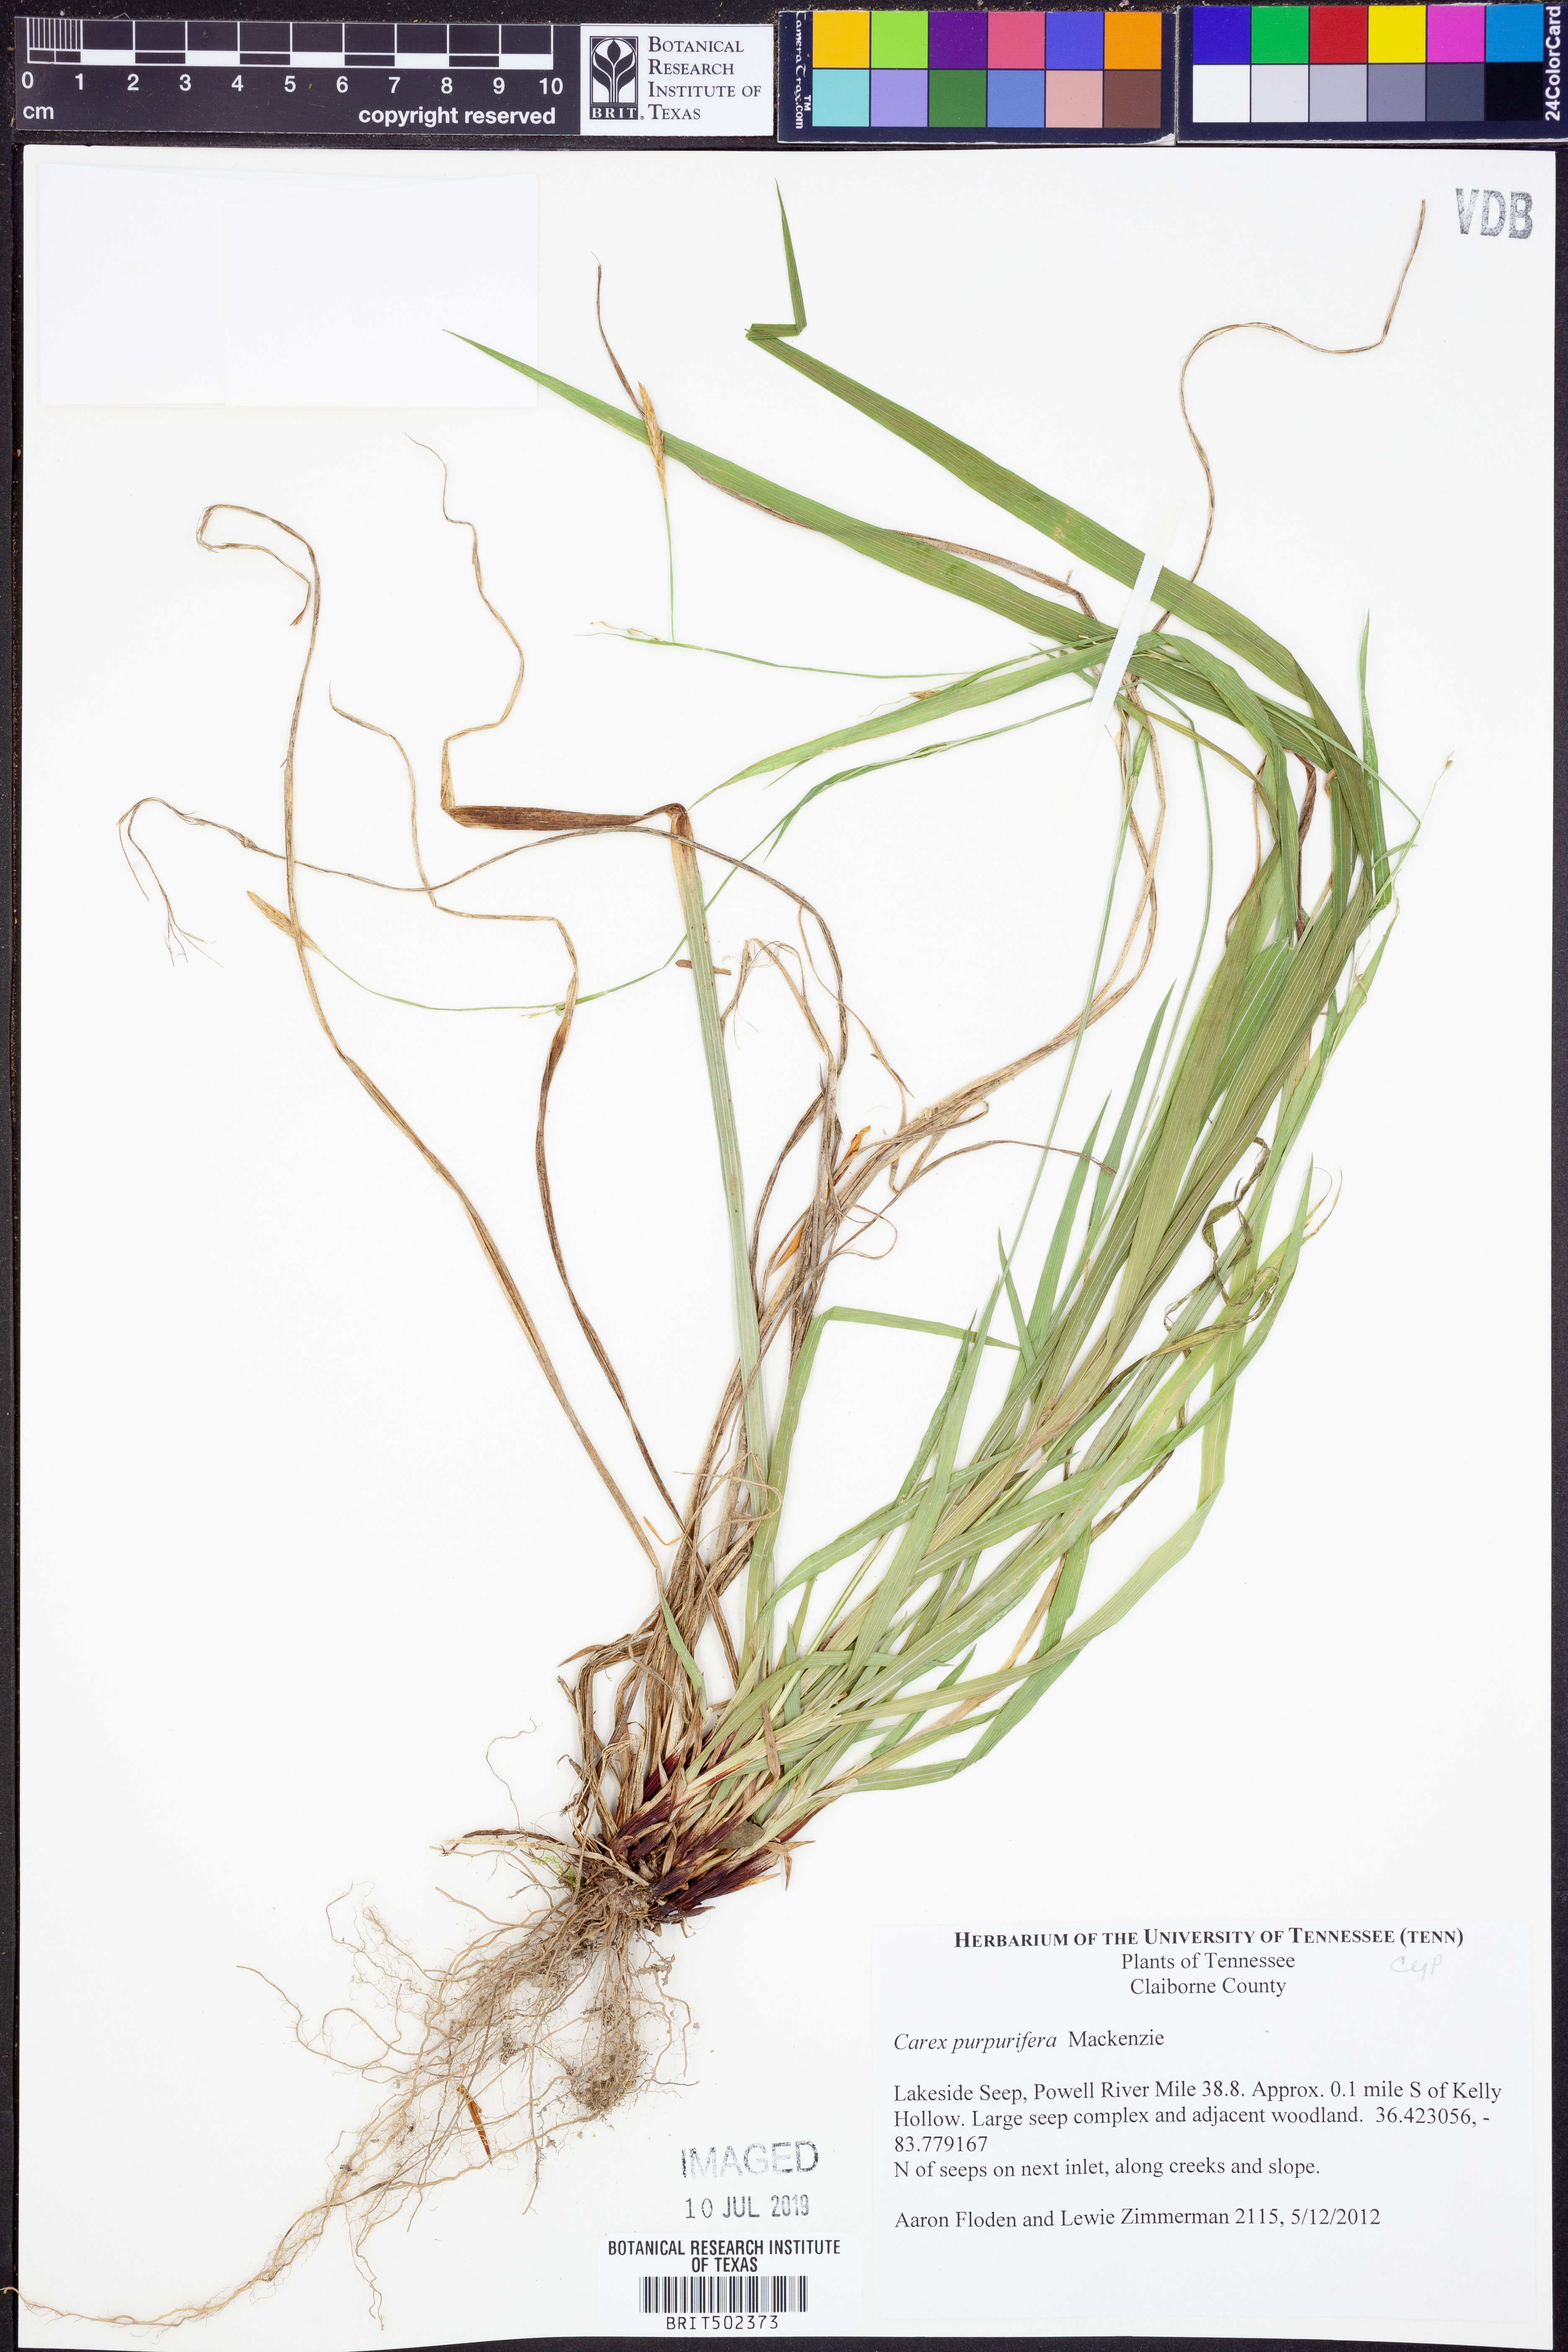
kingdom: Plantae
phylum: Tracheophyta
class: Liliopsida
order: Poales
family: Cyperaceae
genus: Carex
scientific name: Carex purpurifera
